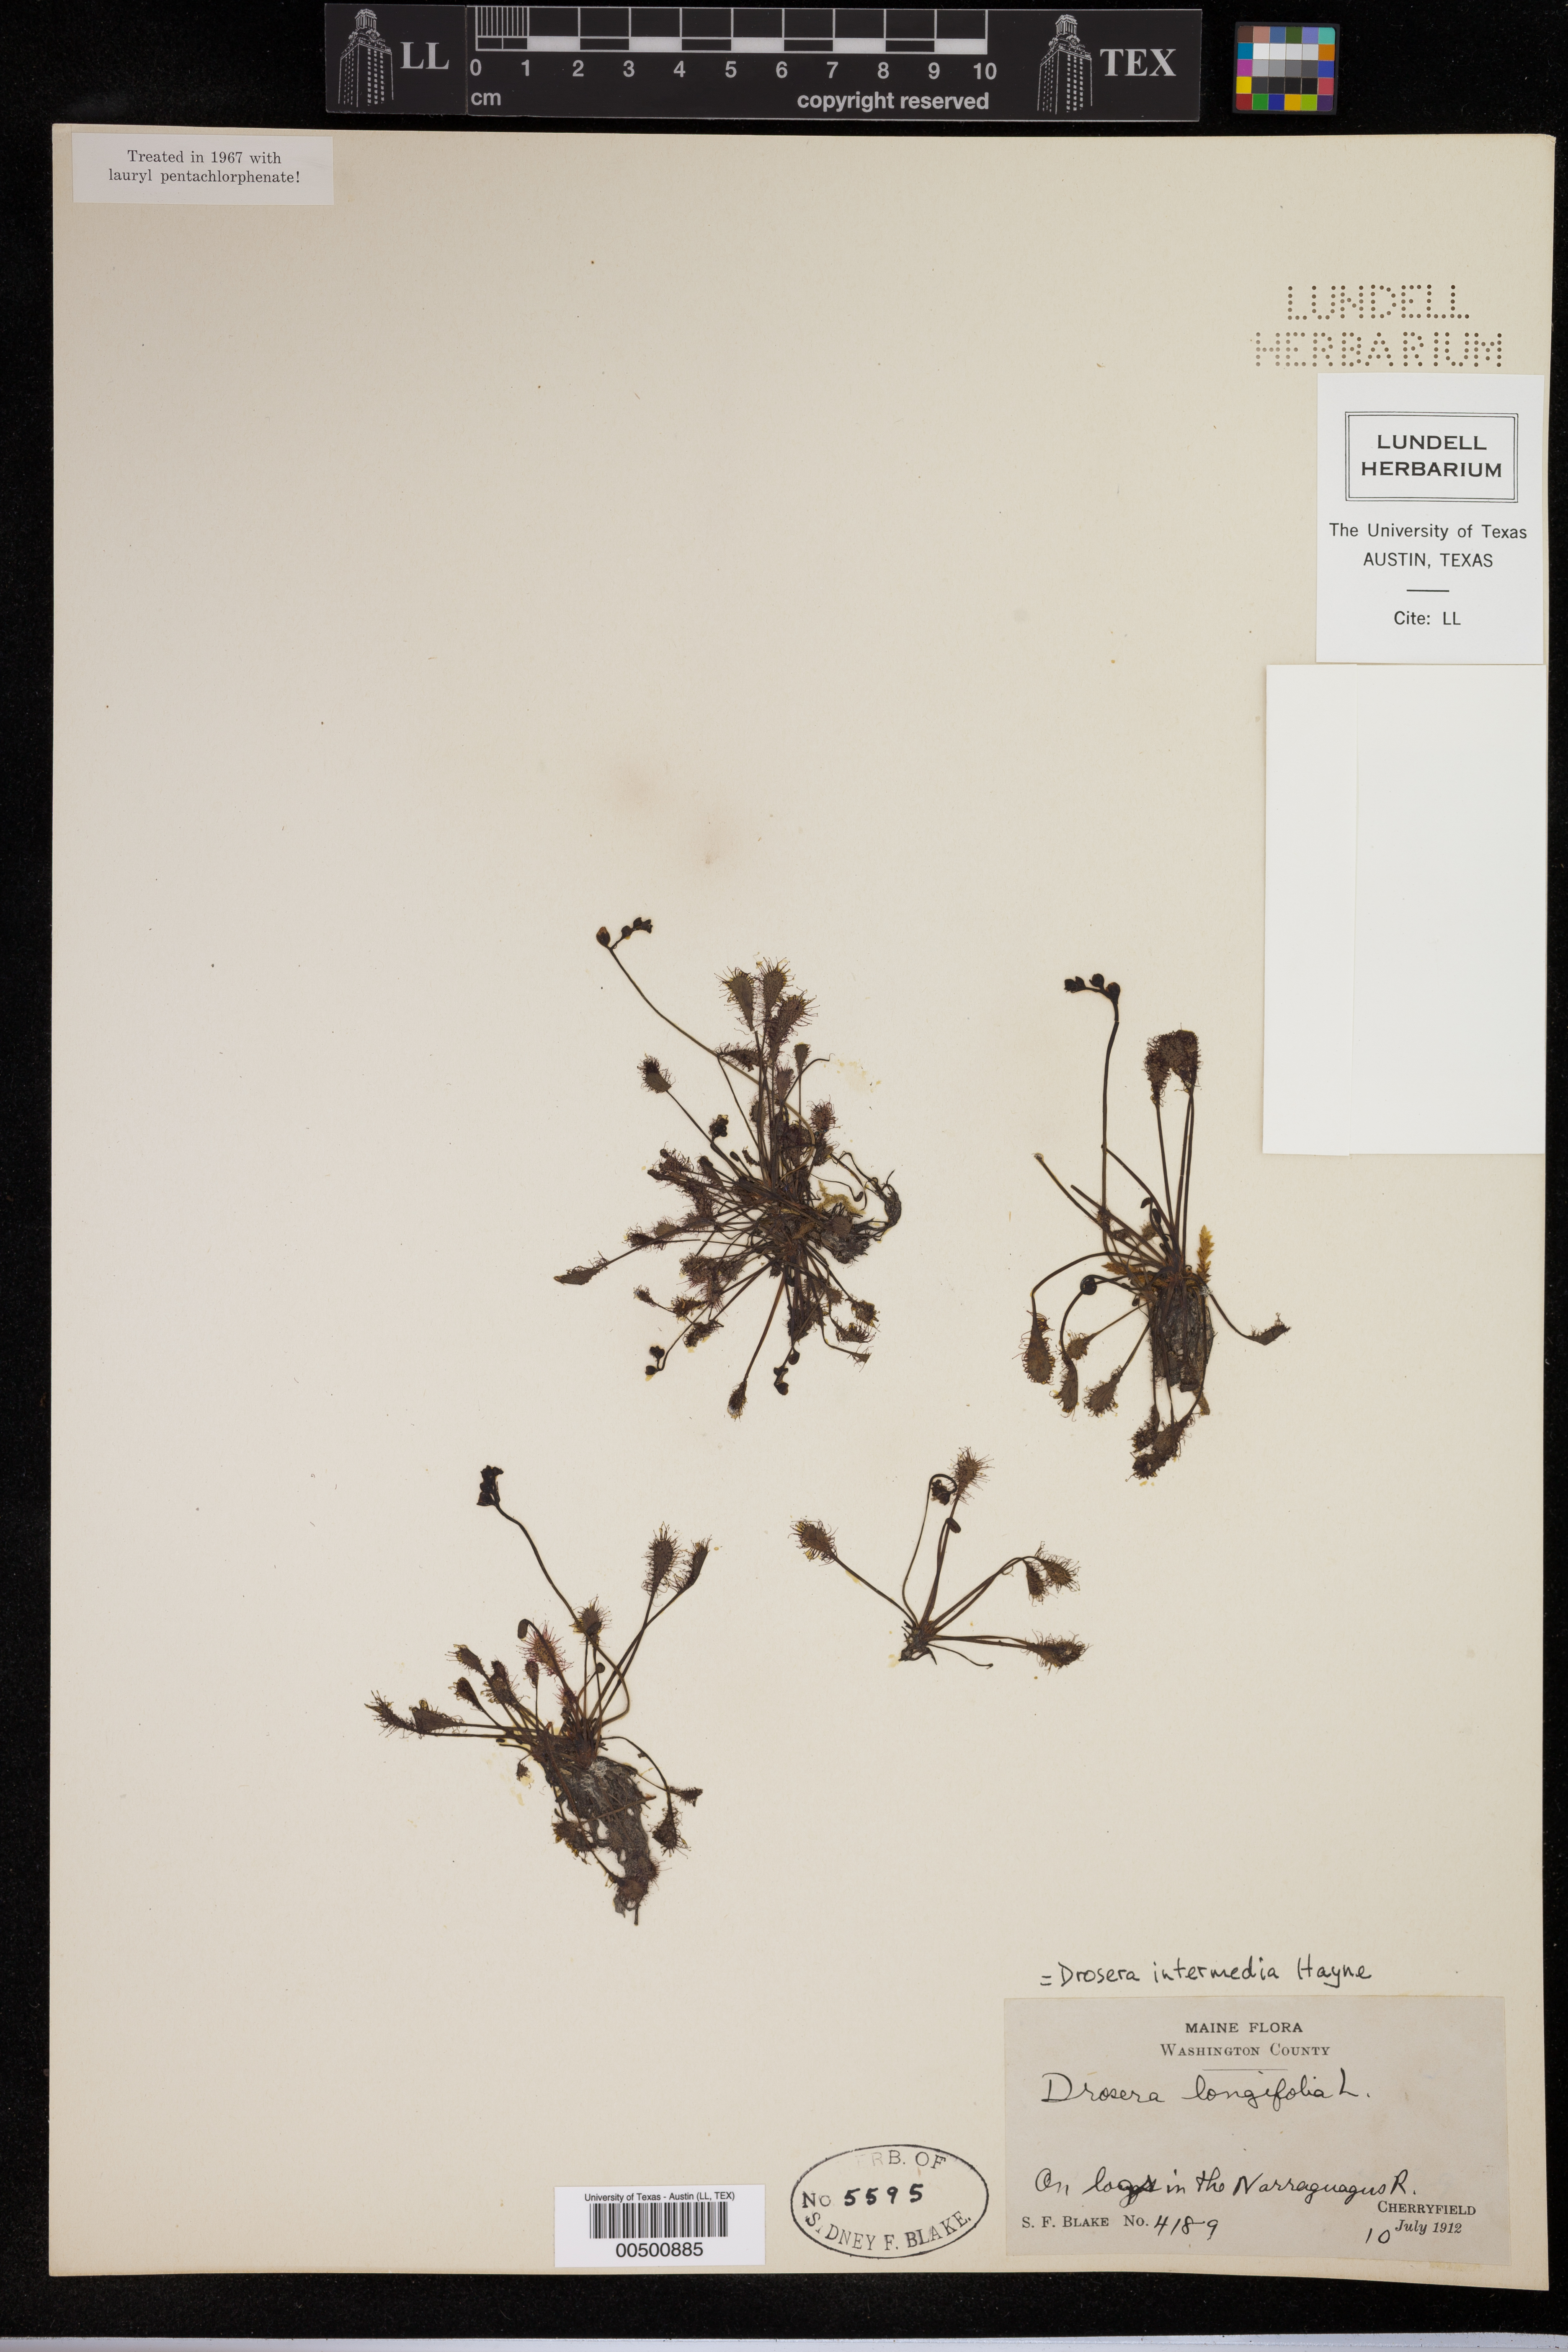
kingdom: Plantae
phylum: Tracheophyta
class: Magnoliopsida
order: Caryophyllales
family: Droseraceae
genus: Drosera
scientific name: Drosera intermedia
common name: Oblong-leaved sundew
